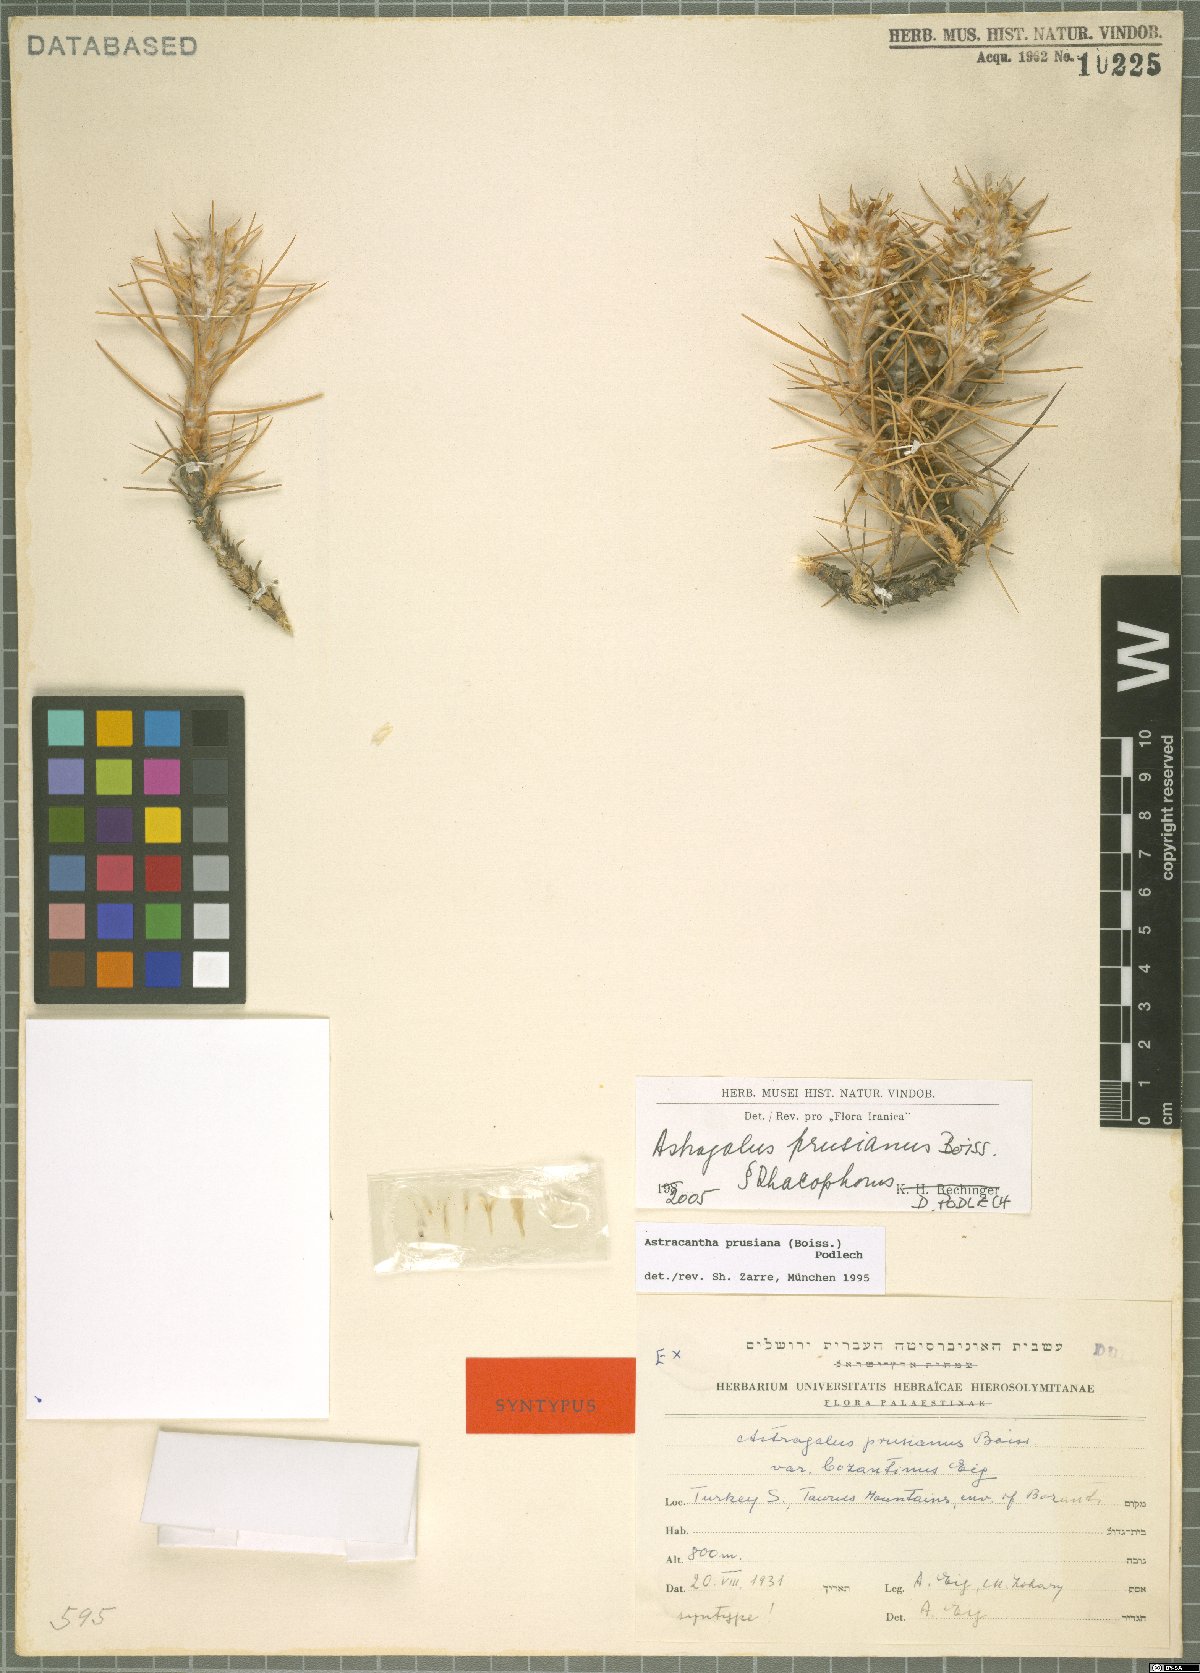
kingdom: Plantae
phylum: Tracheophyta
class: Magnoliopsida
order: Fabales
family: Fabaceae
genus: Astragalus
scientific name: Astragalus prusianus
